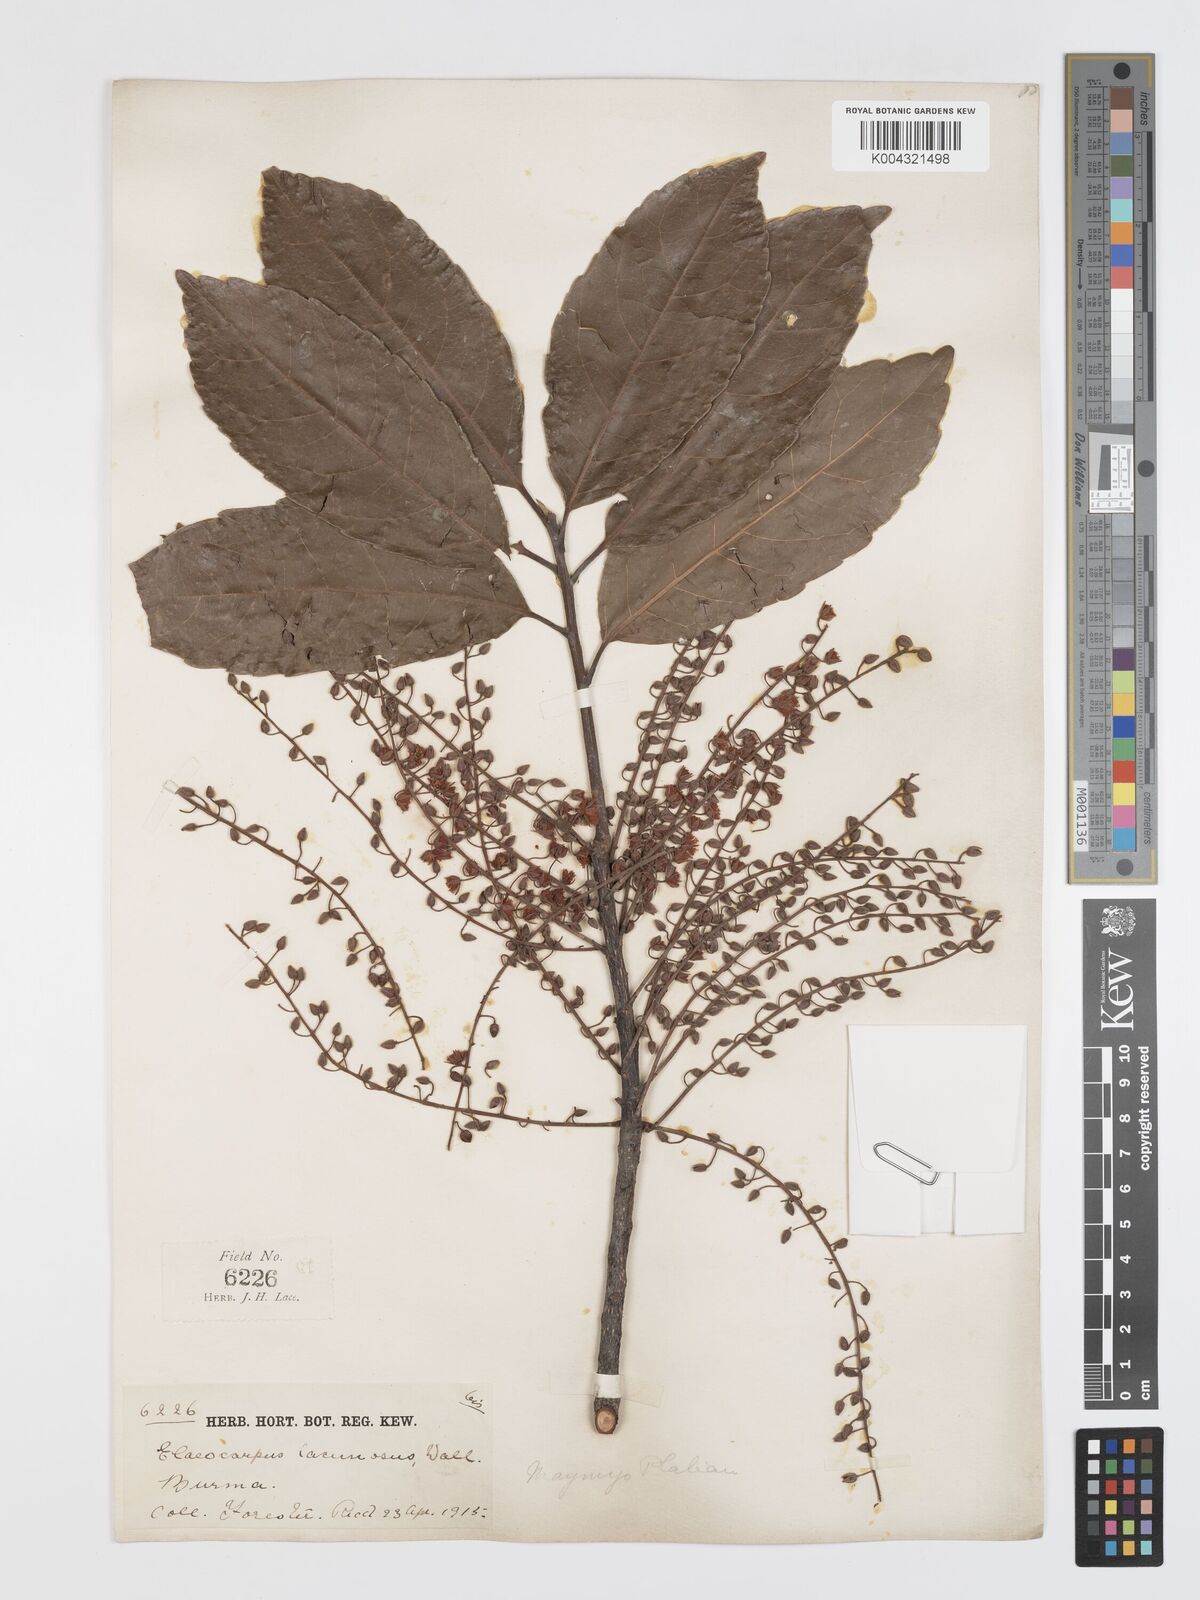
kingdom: Plantae
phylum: Tracheophyta
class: Magnoliopsida
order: Oxalidales
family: Elaeocarpaceae
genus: Elaeocarpus
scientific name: Elaeocarpus lanceifolius
